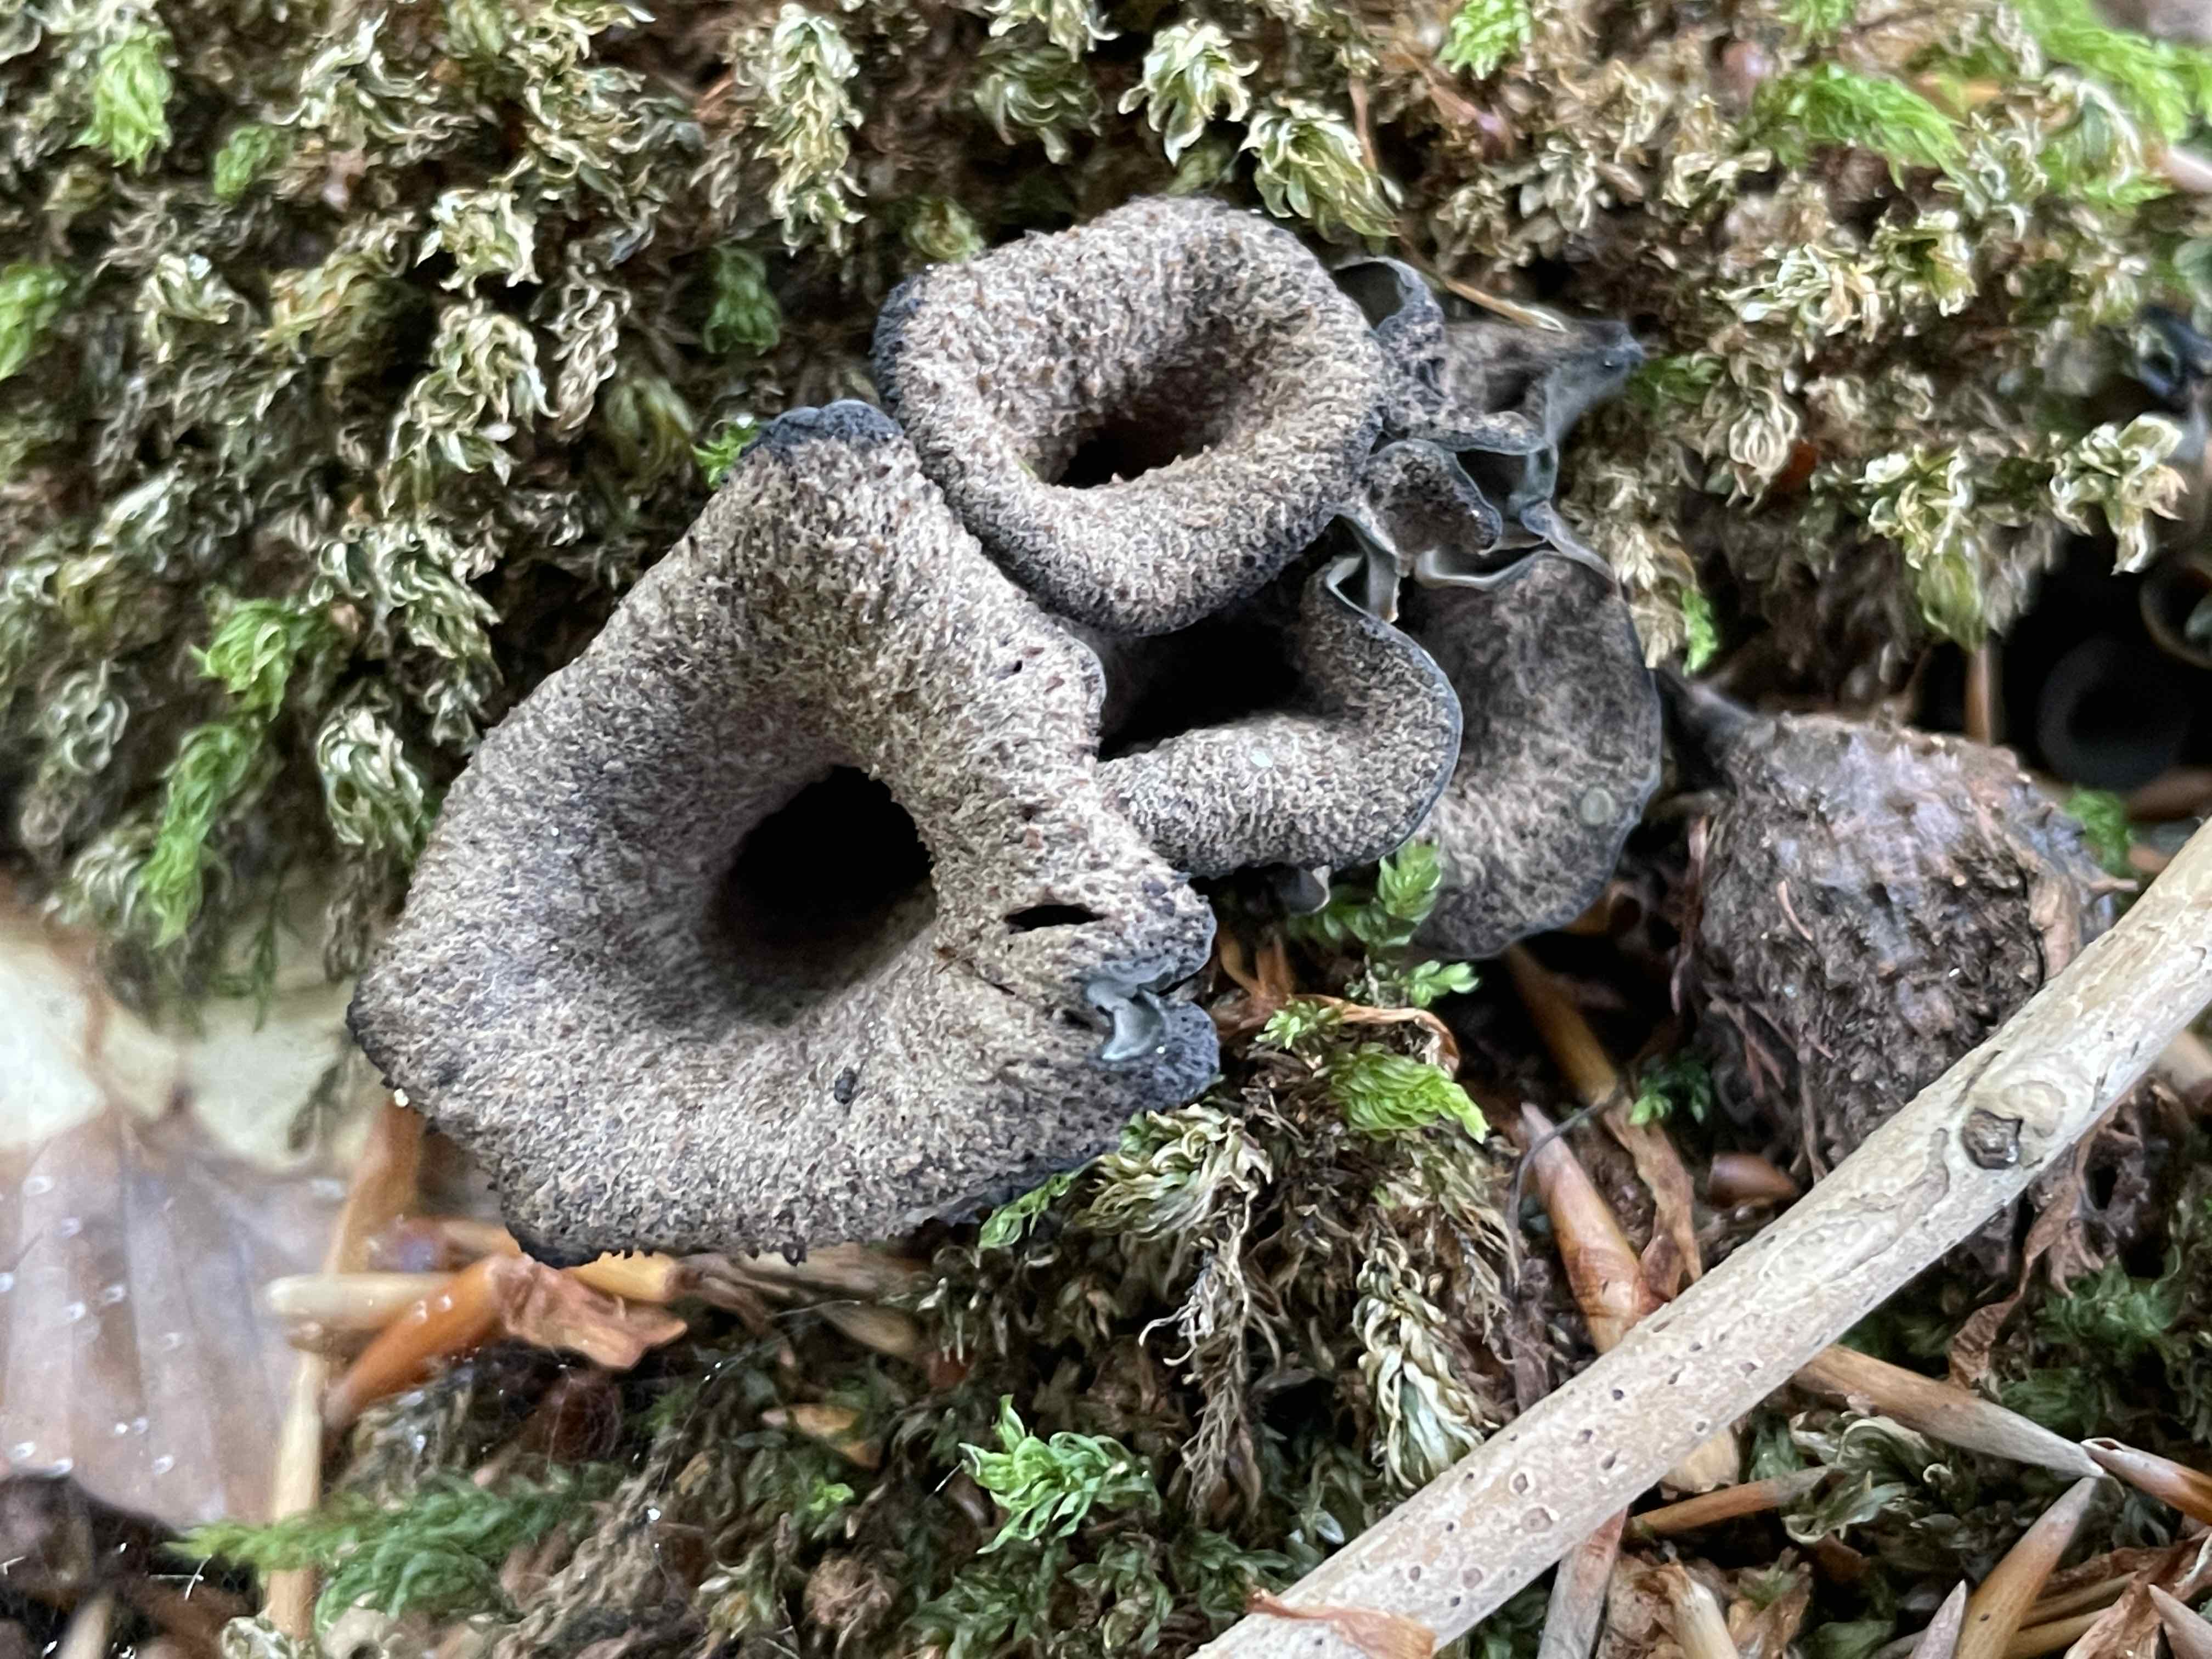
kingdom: Fungi
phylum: Basidiomycota
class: Agaricomycetes
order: Cantharellales
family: Hydnaceae
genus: Craterellus
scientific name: Craterellus cornucopioides
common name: trompetsvamp
